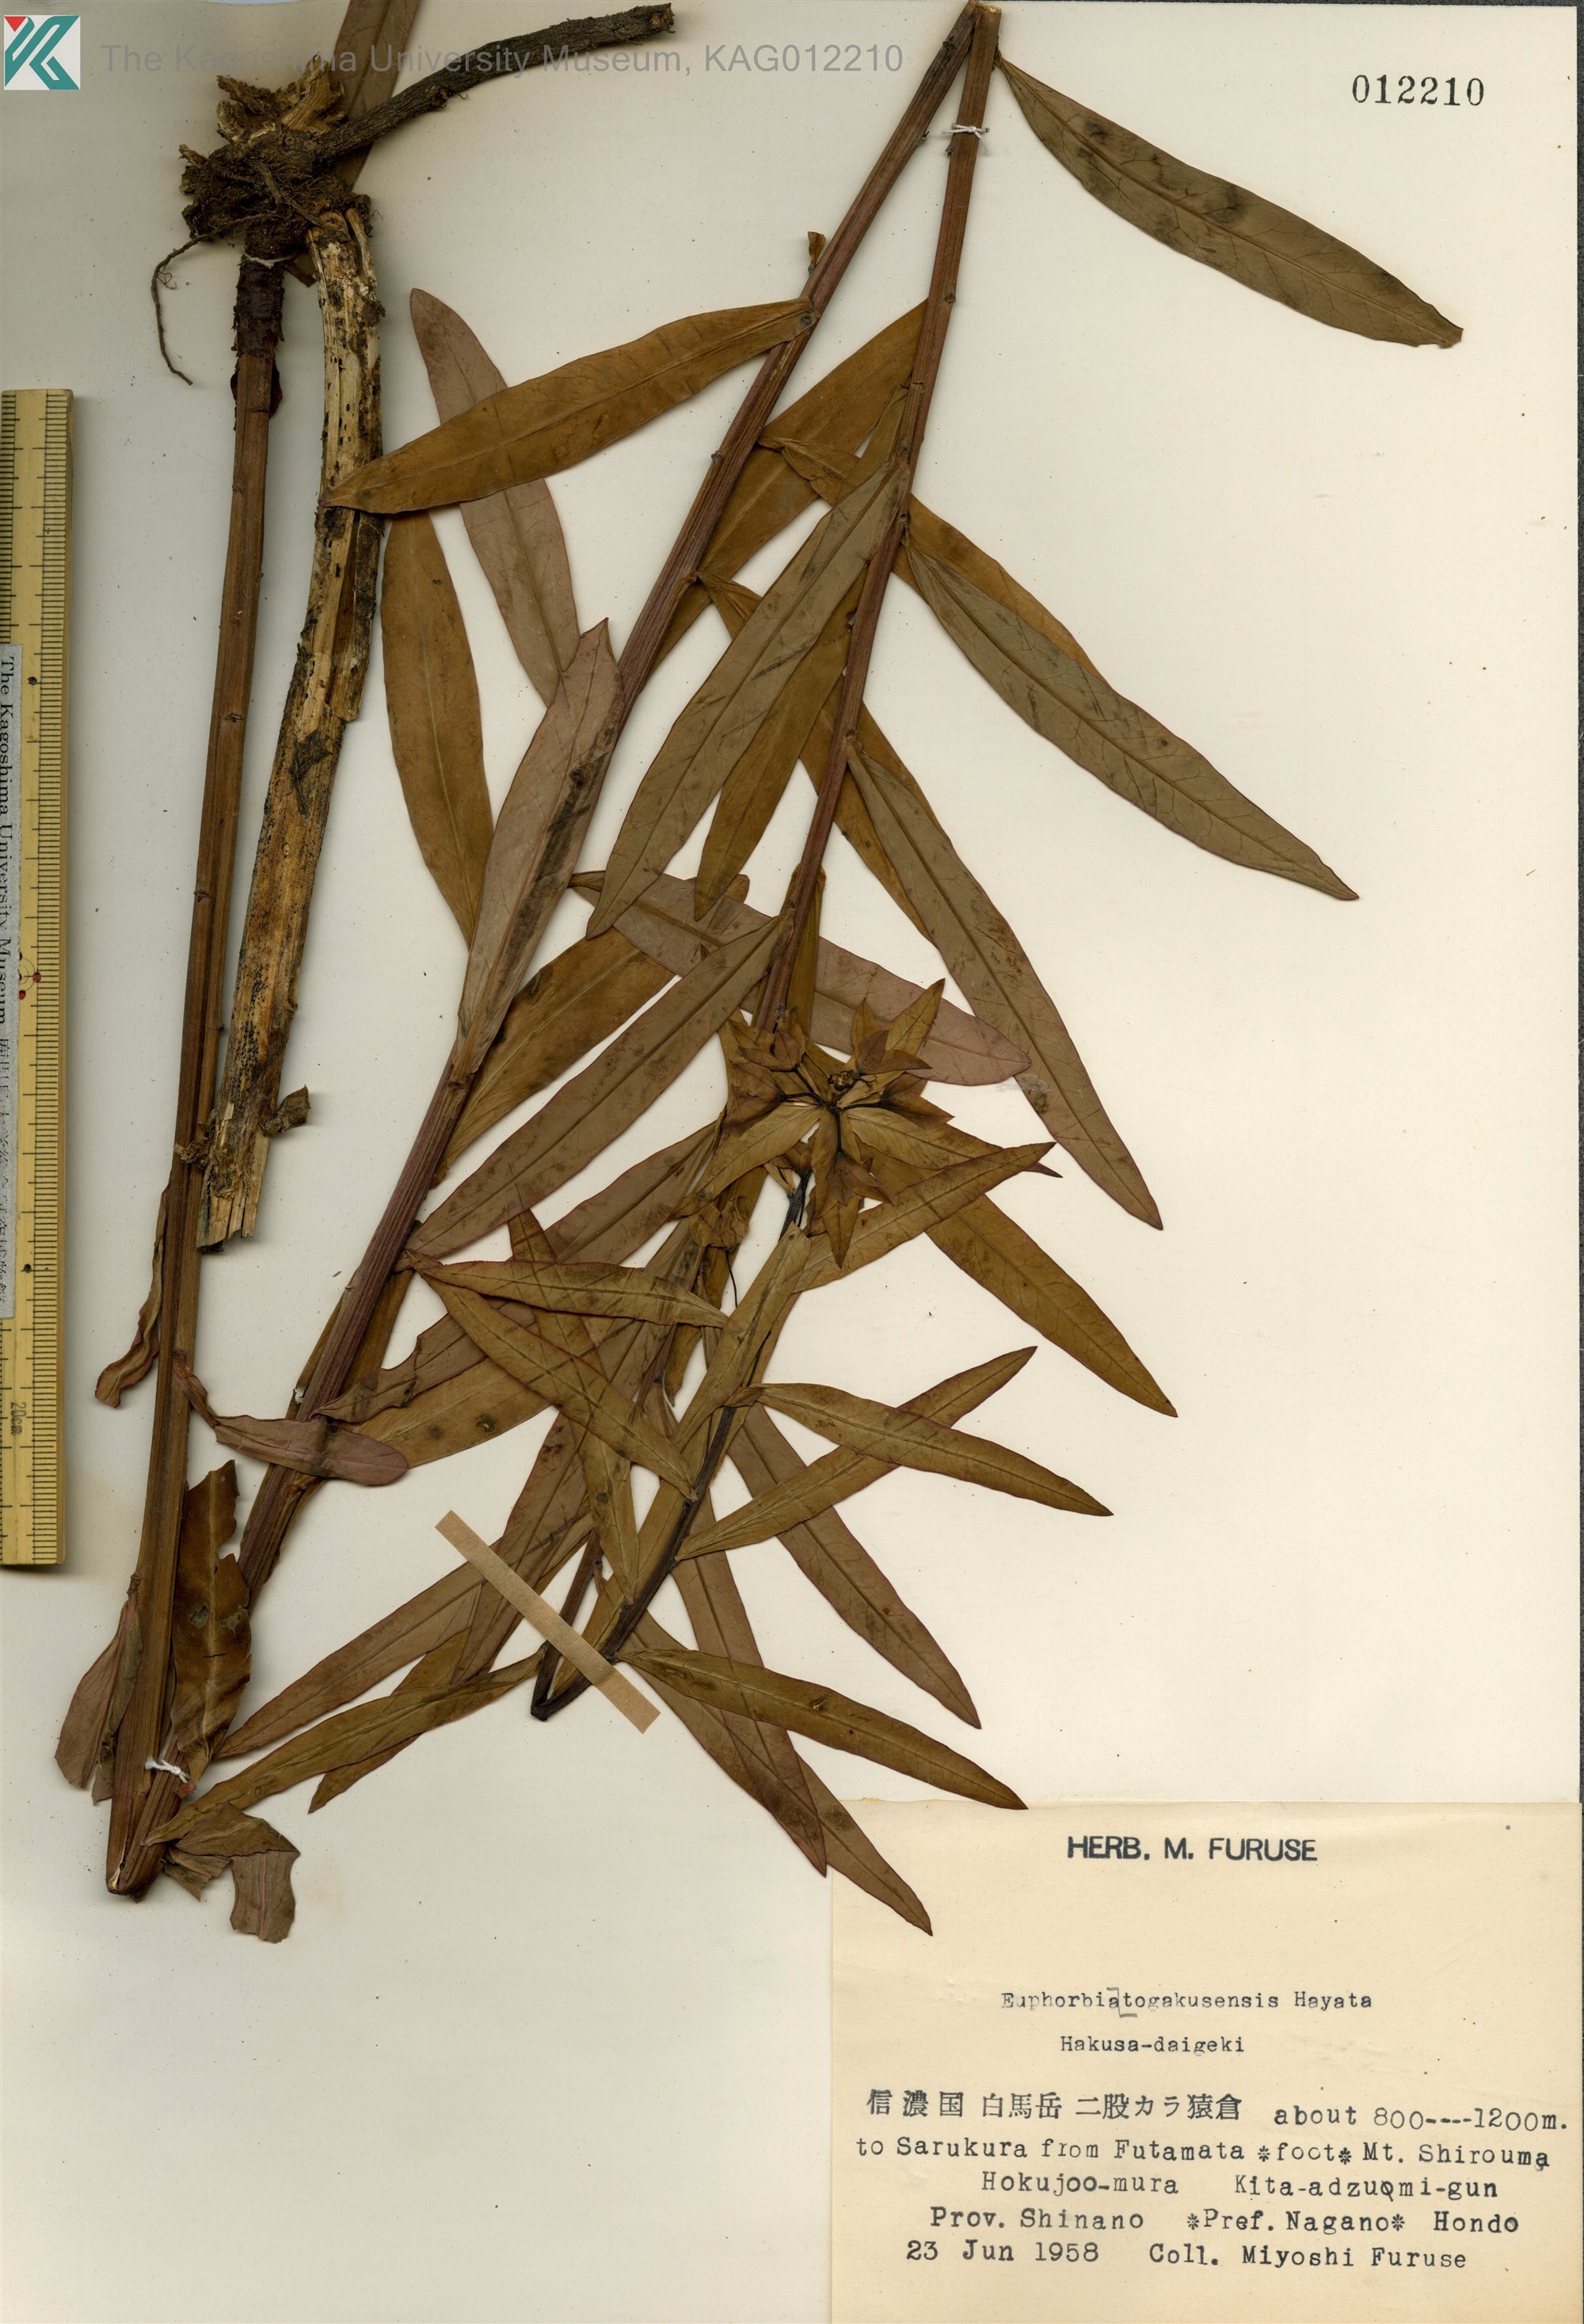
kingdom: Plantae
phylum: Tracheophyta
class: Magnoliopsida
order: Malpighiales
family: Euphorbiaceae
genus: Euphorbia
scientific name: Euphorbia togakusensis
